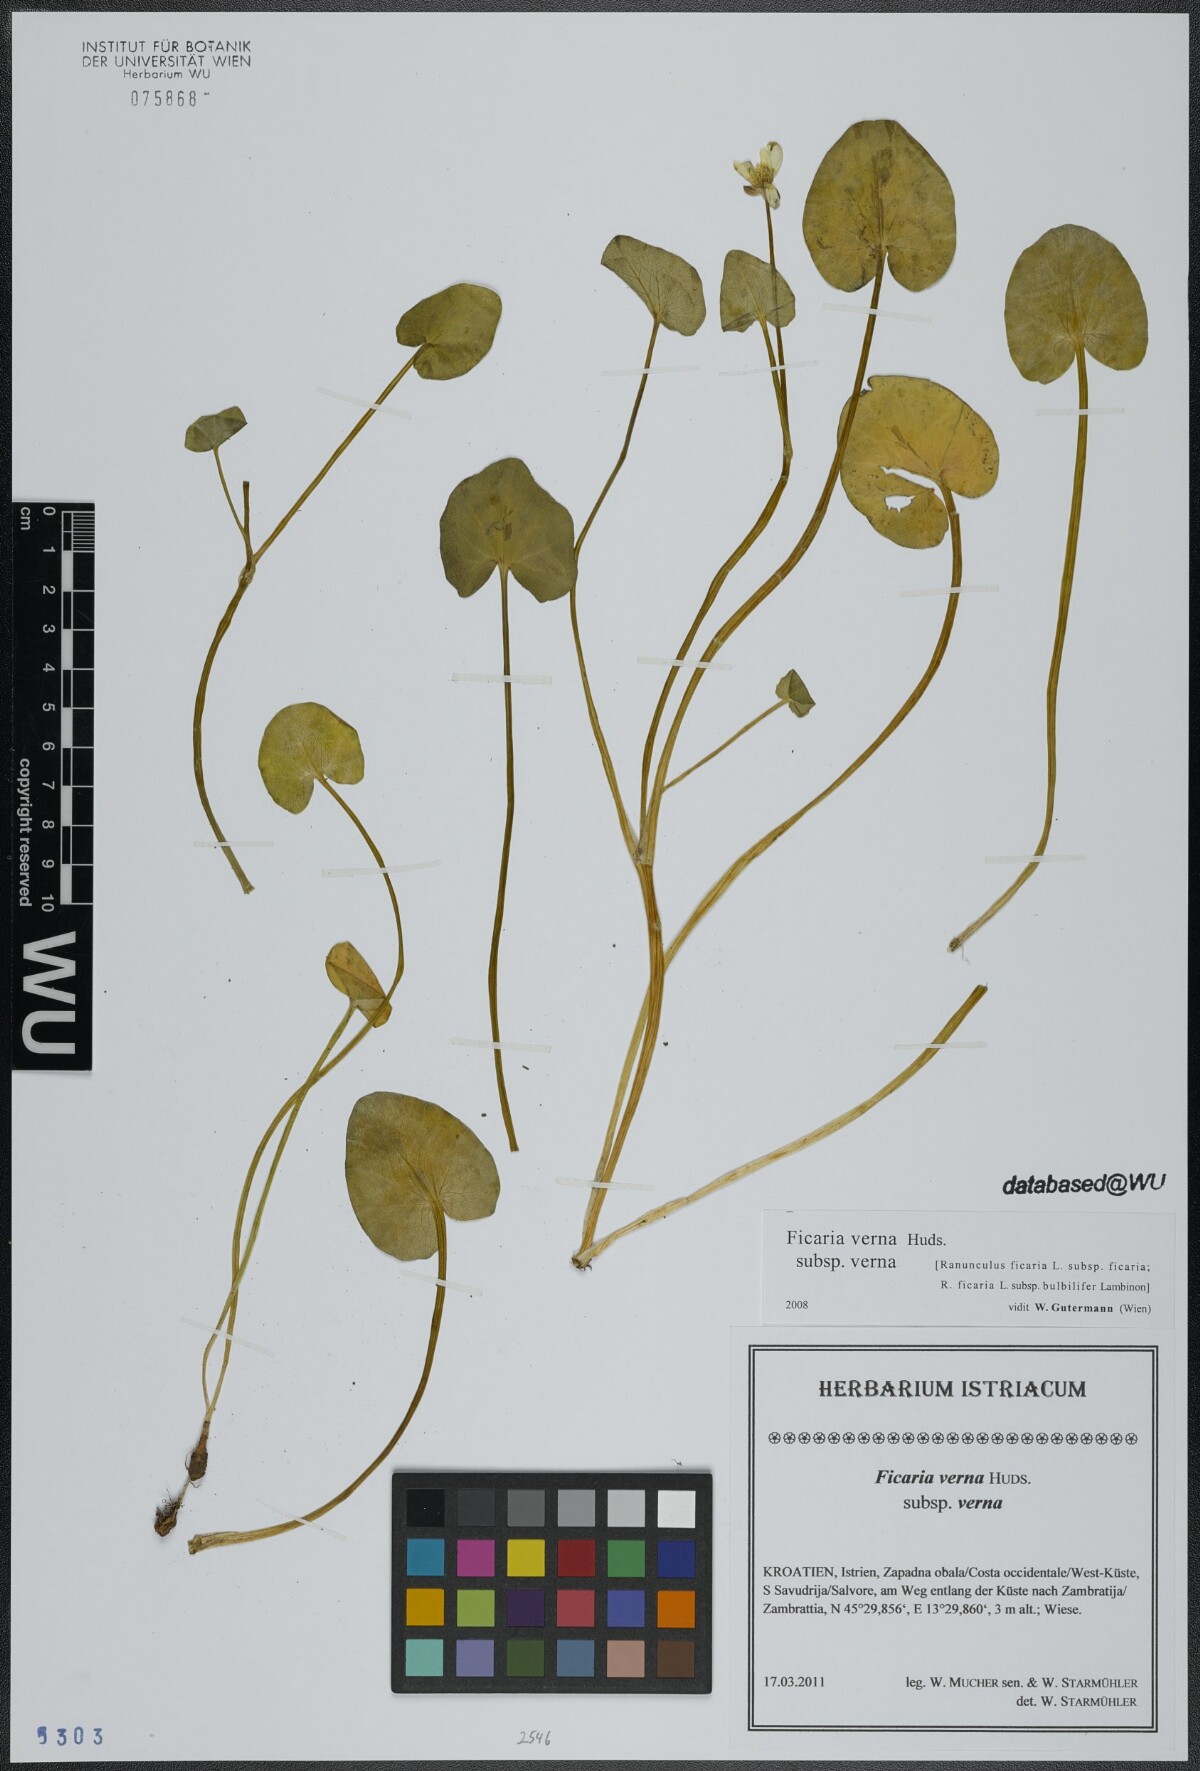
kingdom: Plantae
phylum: Tracheophyta
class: Magnoliopsida
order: Ranunculales
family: Ranunculaceae
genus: Ficaria
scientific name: Ficaria verna
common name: Lesser celandine
